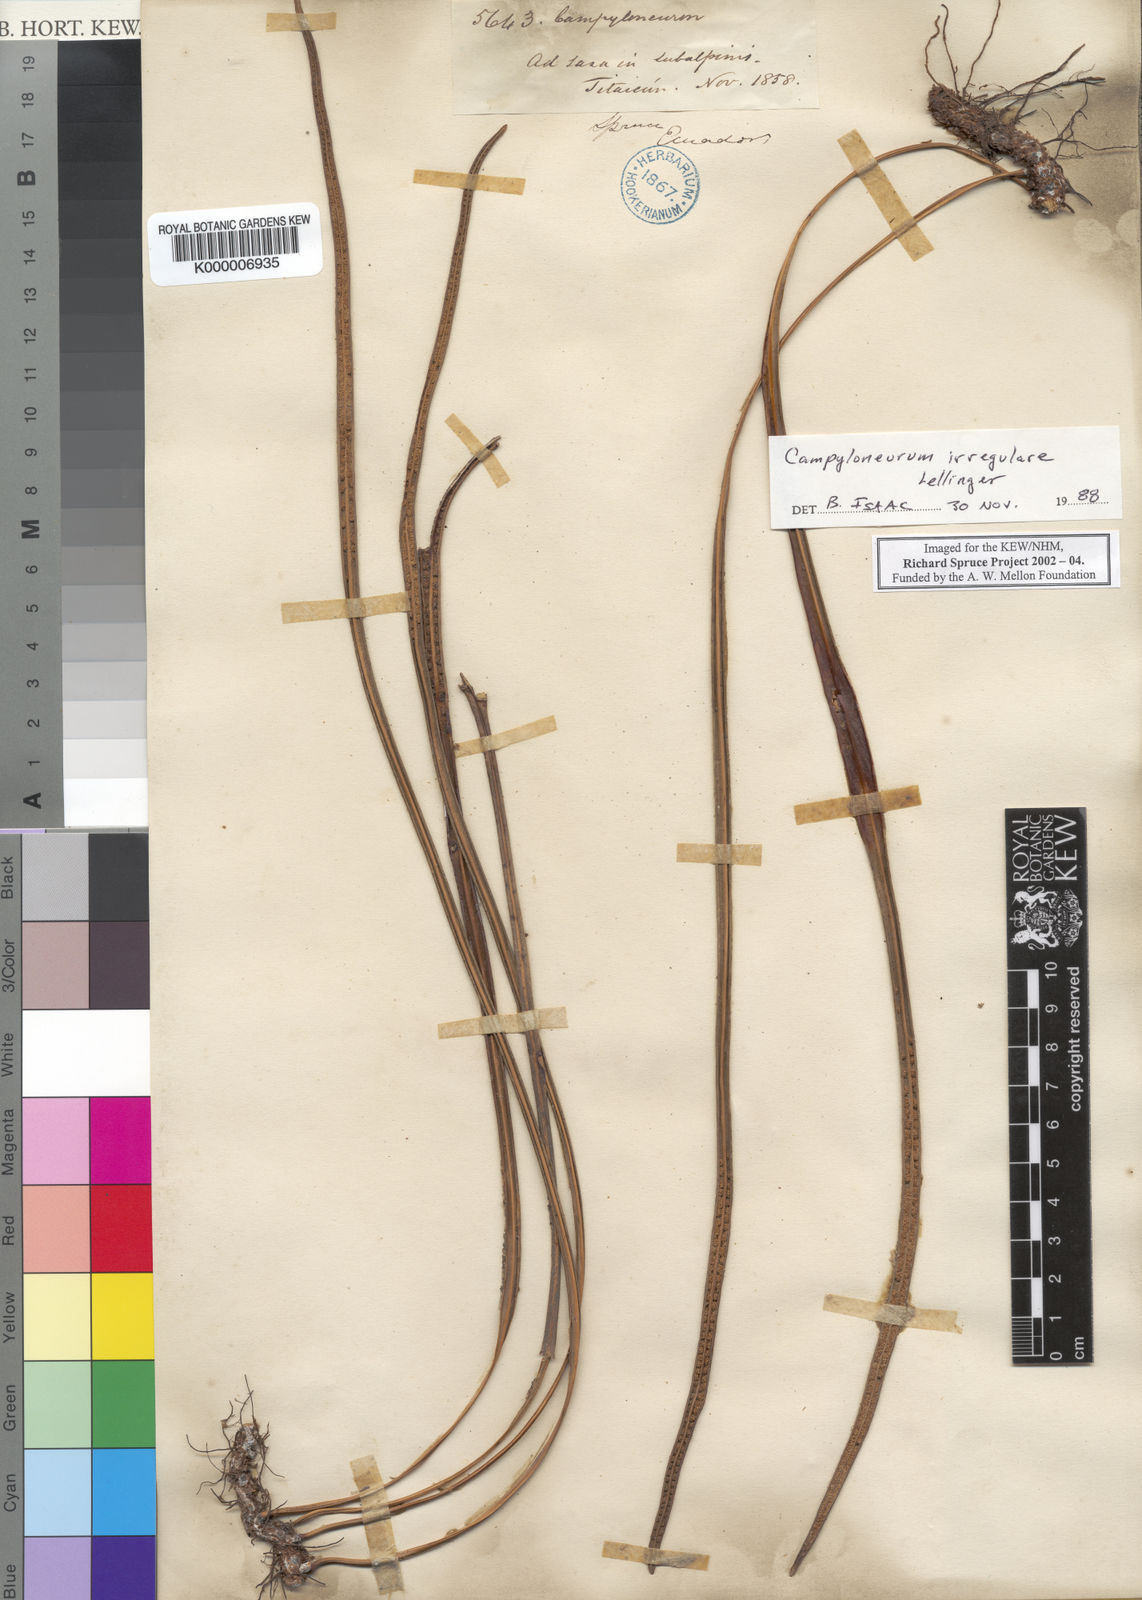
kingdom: Plantae
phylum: Tracheophyta
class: Polypodiopsida
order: Polypodiales
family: Polypodiaceae
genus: Campyloneurum
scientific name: Campyloneurum amphostenon
